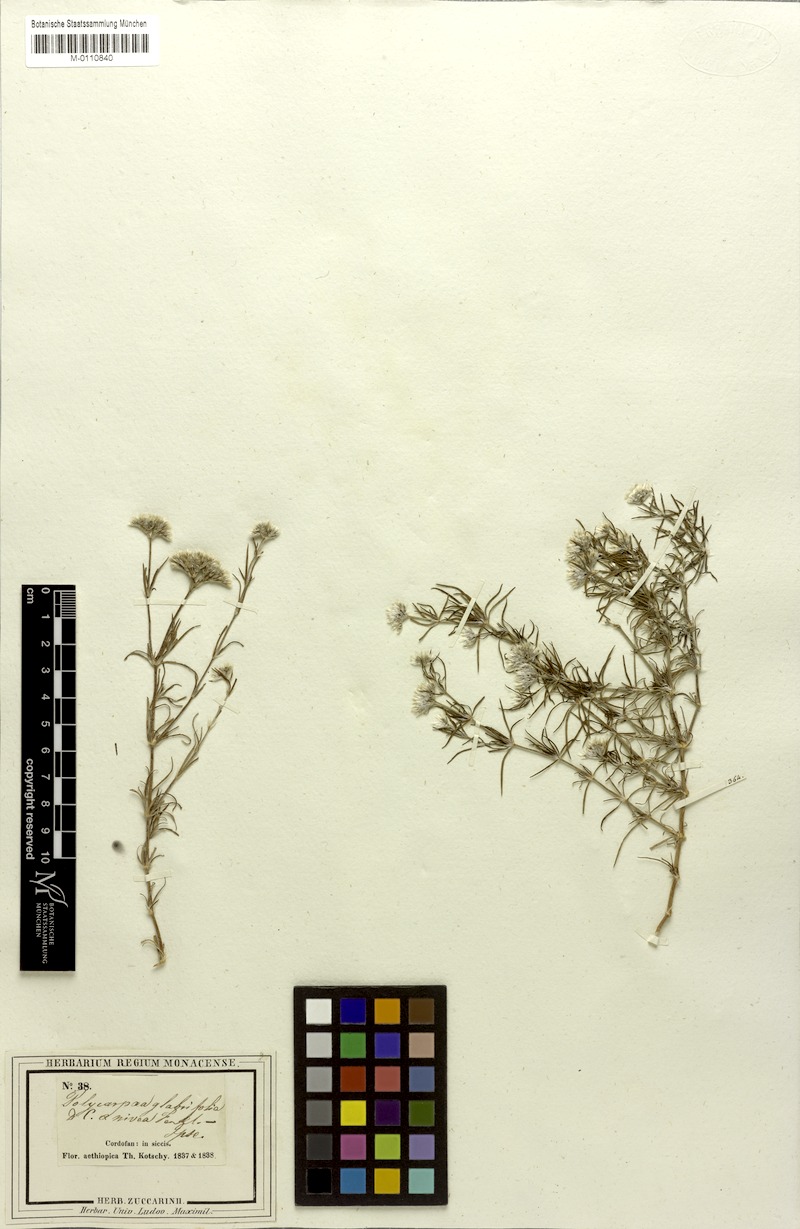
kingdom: Plantae
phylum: Tracheophyta
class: Magnoliopsida
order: Caryophyllales
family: Caryophyllaceae
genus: Polycarpaea
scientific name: Polycarpaea corymbosa
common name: Oldman's cap
